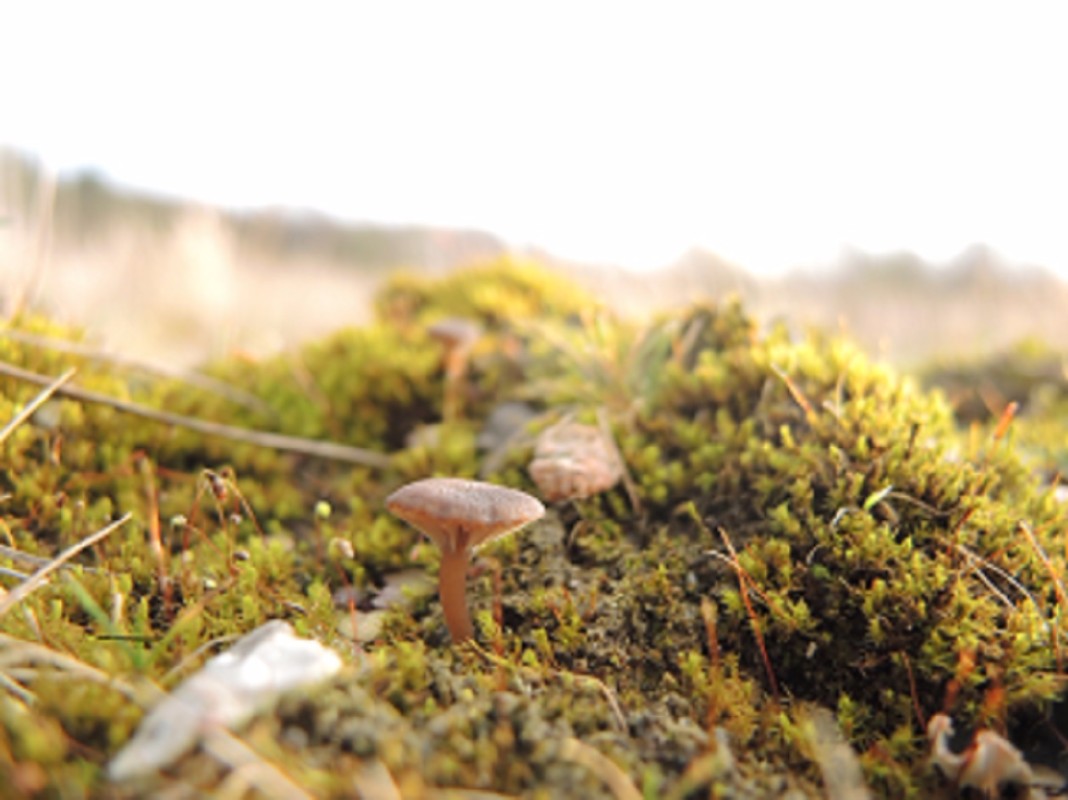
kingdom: Fungi
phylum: Basidiomycota
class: Agaricomycetes
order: Agaricales
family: Hygrophoraceae
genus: Arrhenia
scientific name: Arrhenia obscurata
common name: hede-fontænehat
